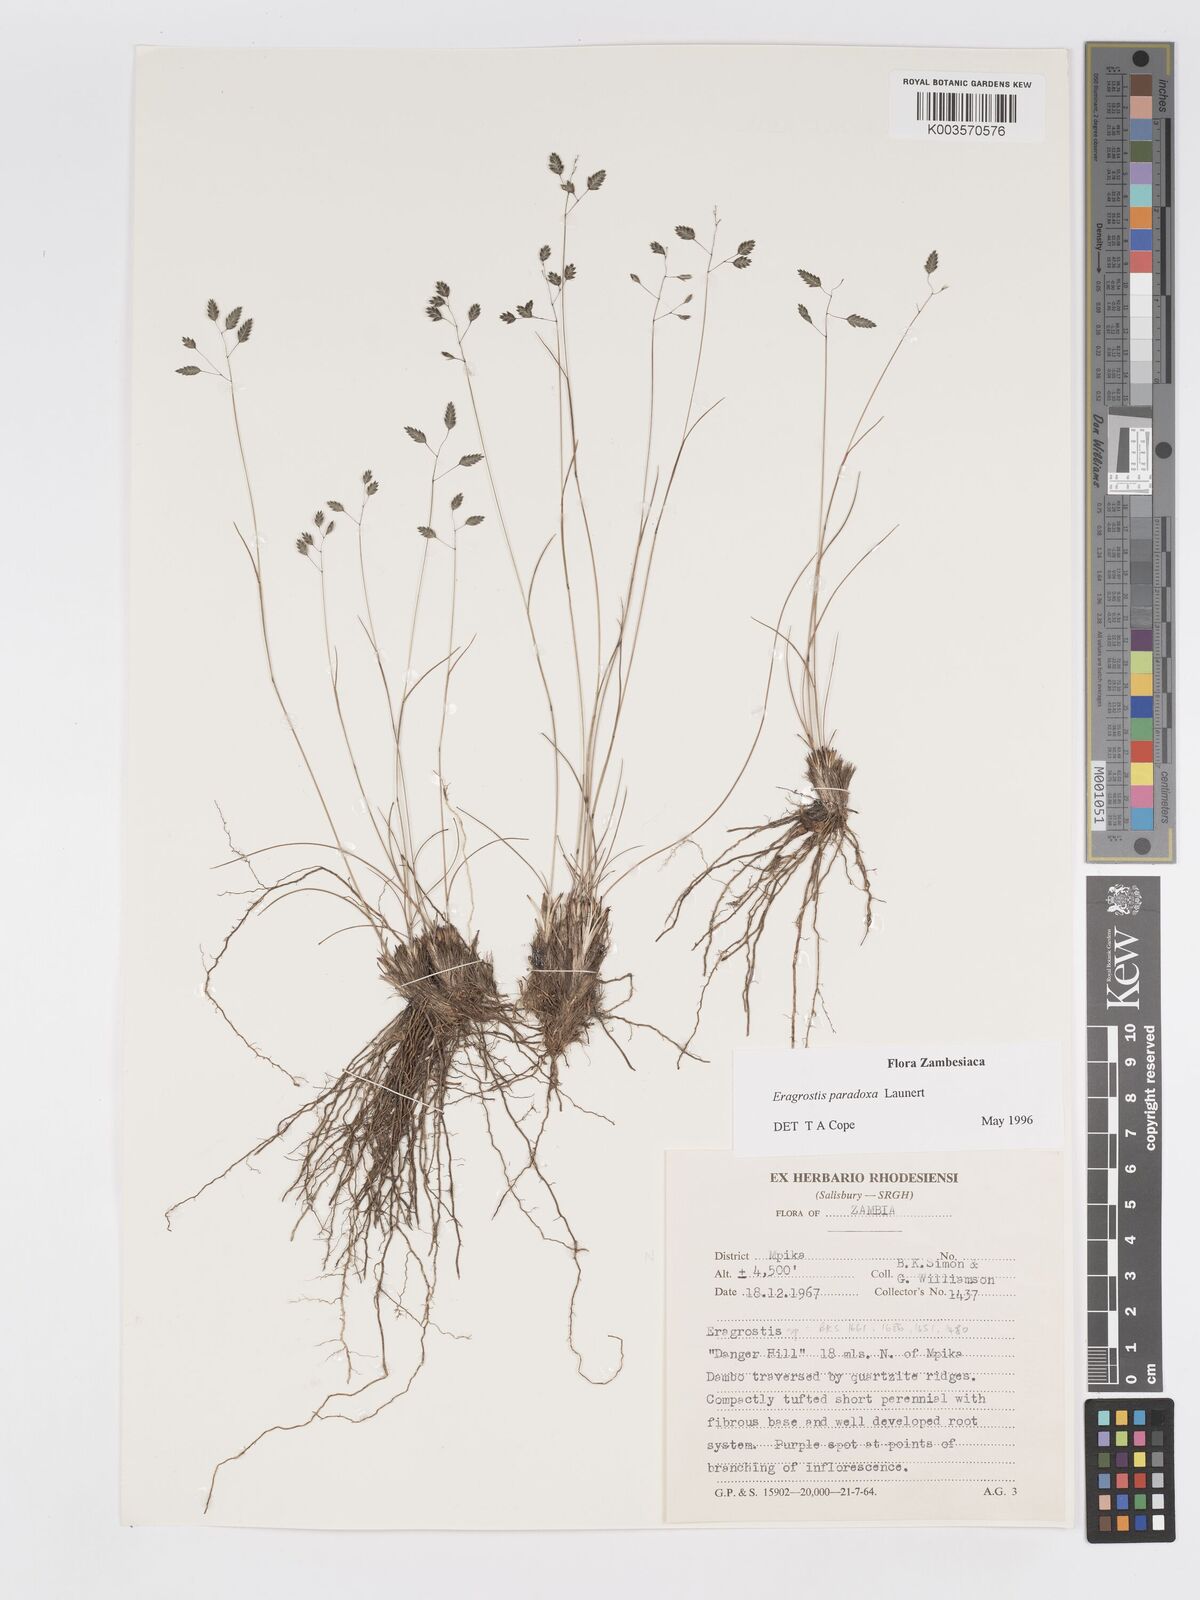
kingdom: Plantae
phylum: Tracheophyta
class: Liliopsida
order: Poales
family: Poaceae
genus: Eragrostis
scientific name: Eragrostis paradoxa
